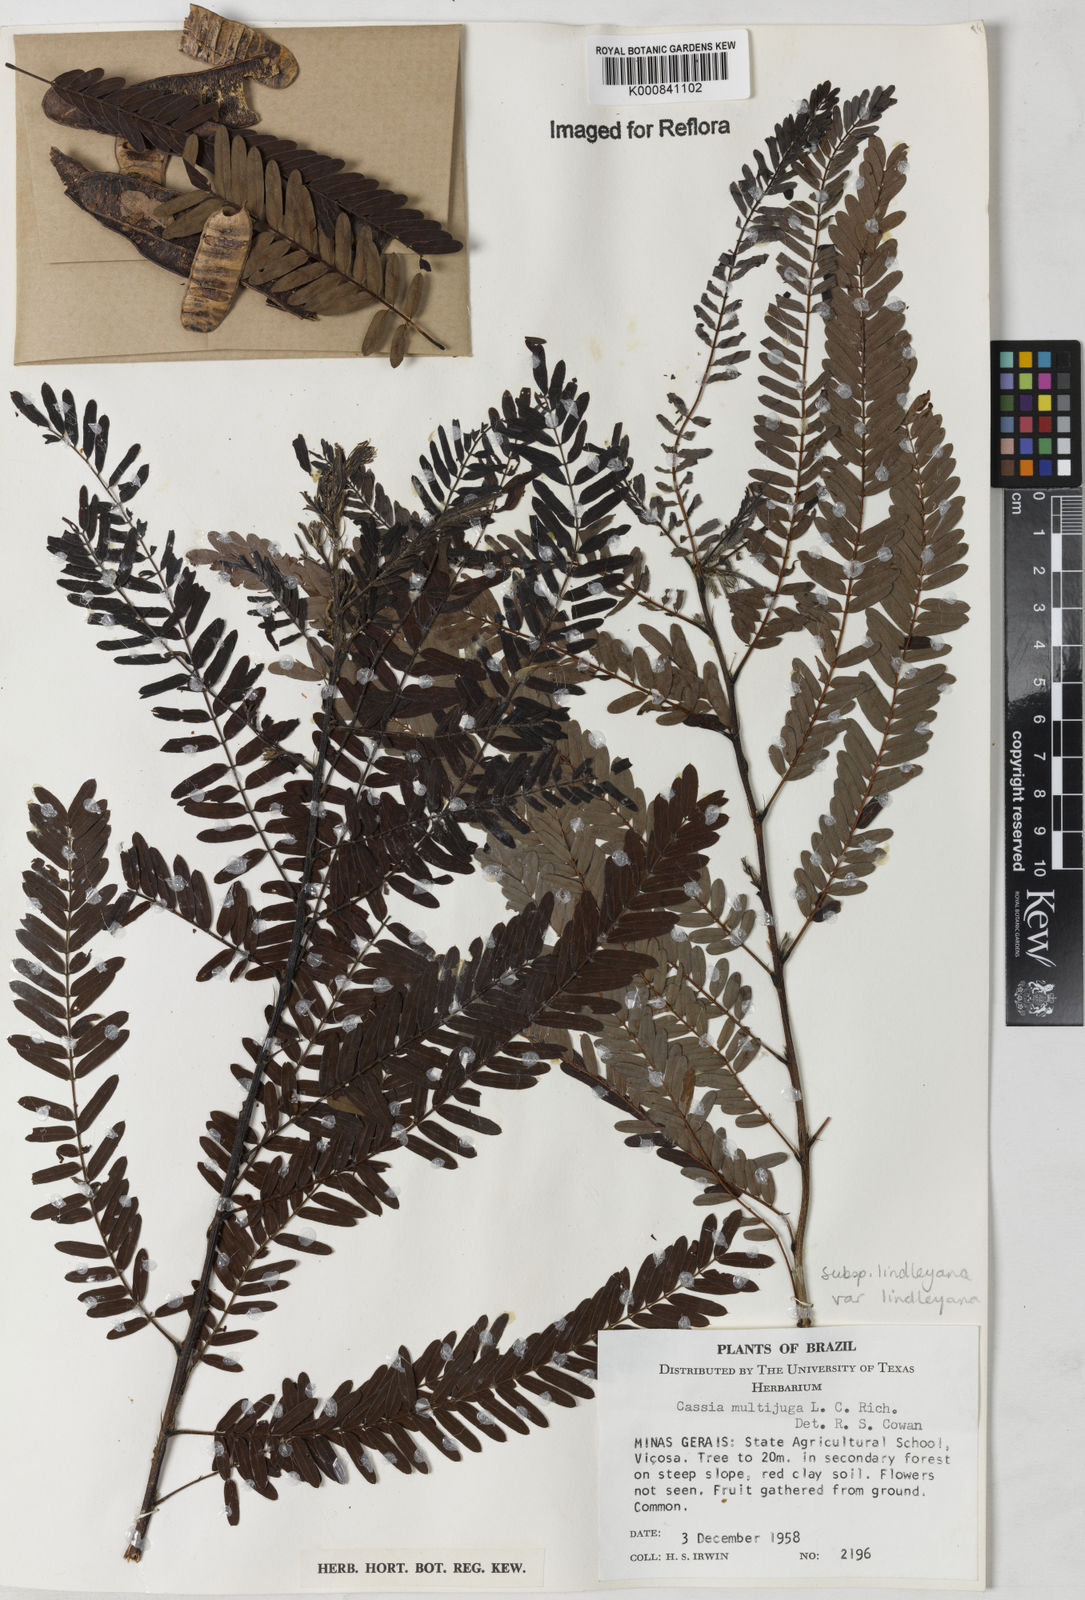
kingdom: Plantae
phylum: Tracheophyta
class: Magnoliopsida
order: Fabales
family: Fabaceae
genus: Senna
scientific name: Senna multijuga
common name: False sicklepod
